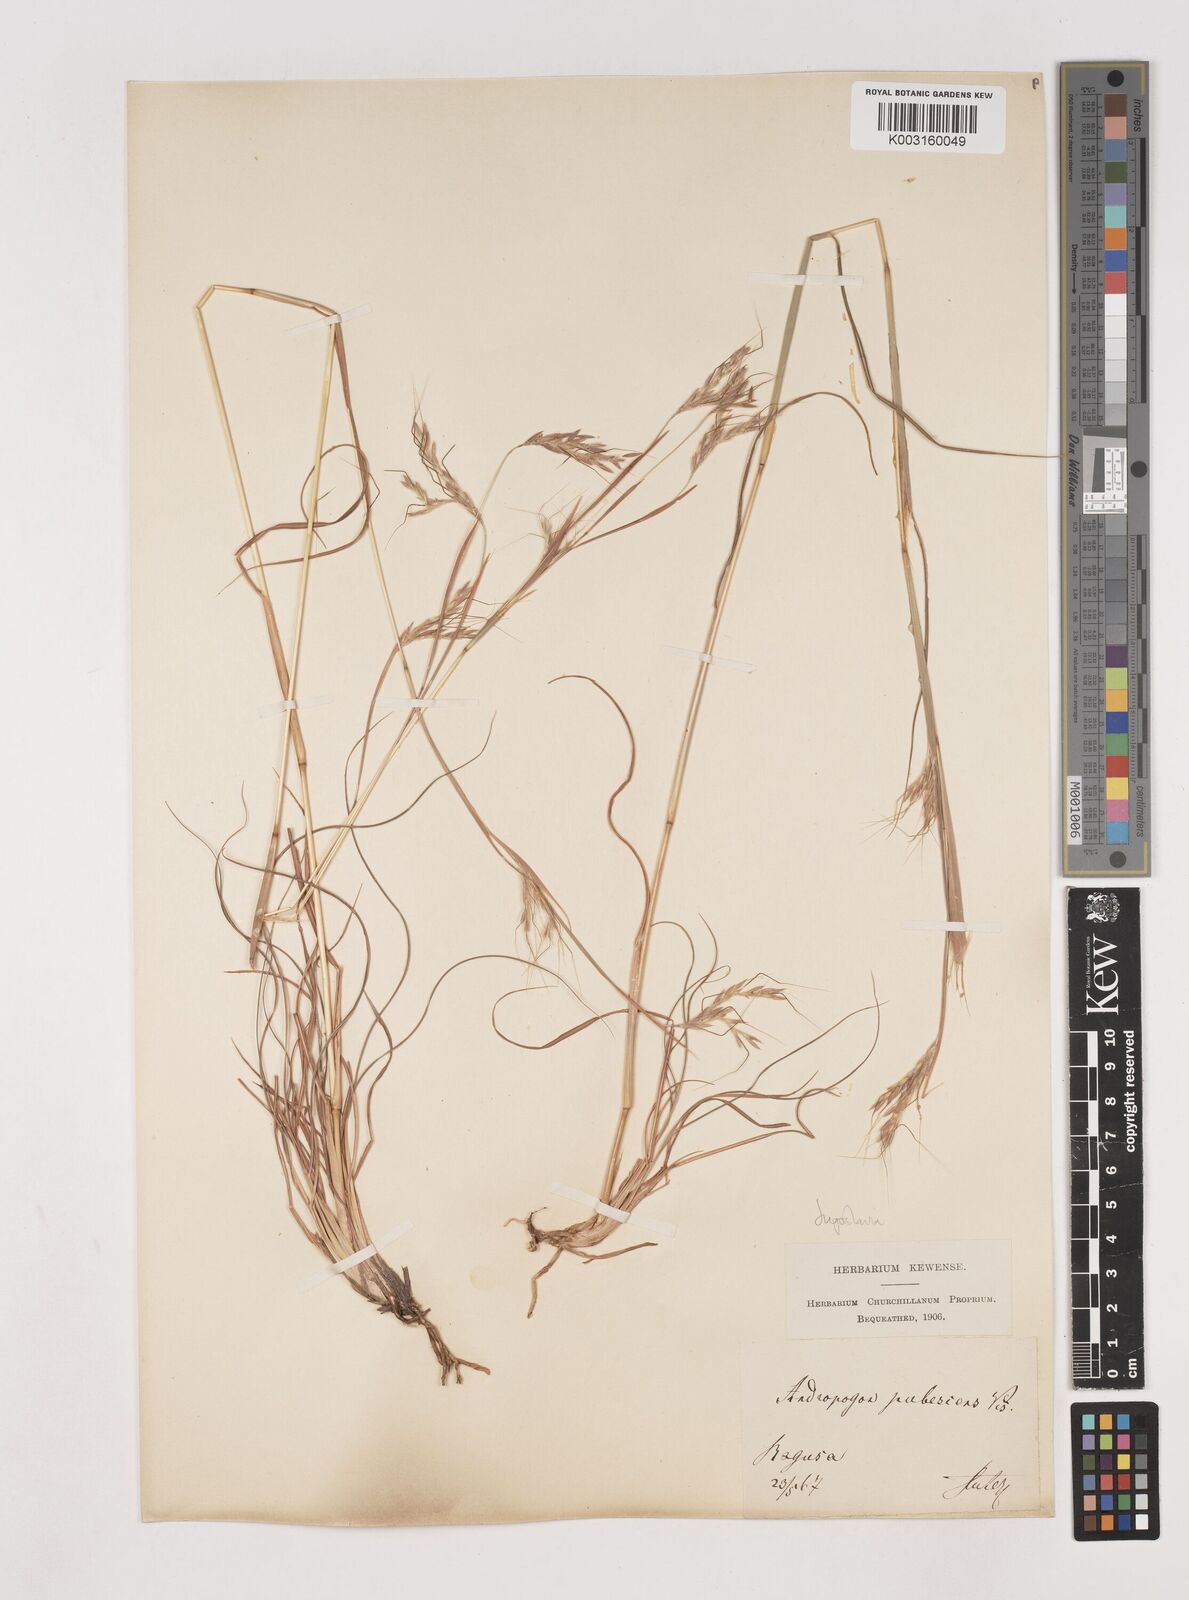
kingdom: Plantae
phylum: Tracheophyta
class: Liliopsida
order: Poales
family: Poaceae
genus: Hyparrhenia
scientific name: Hyparrhenia hirta
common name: Thatching grass
